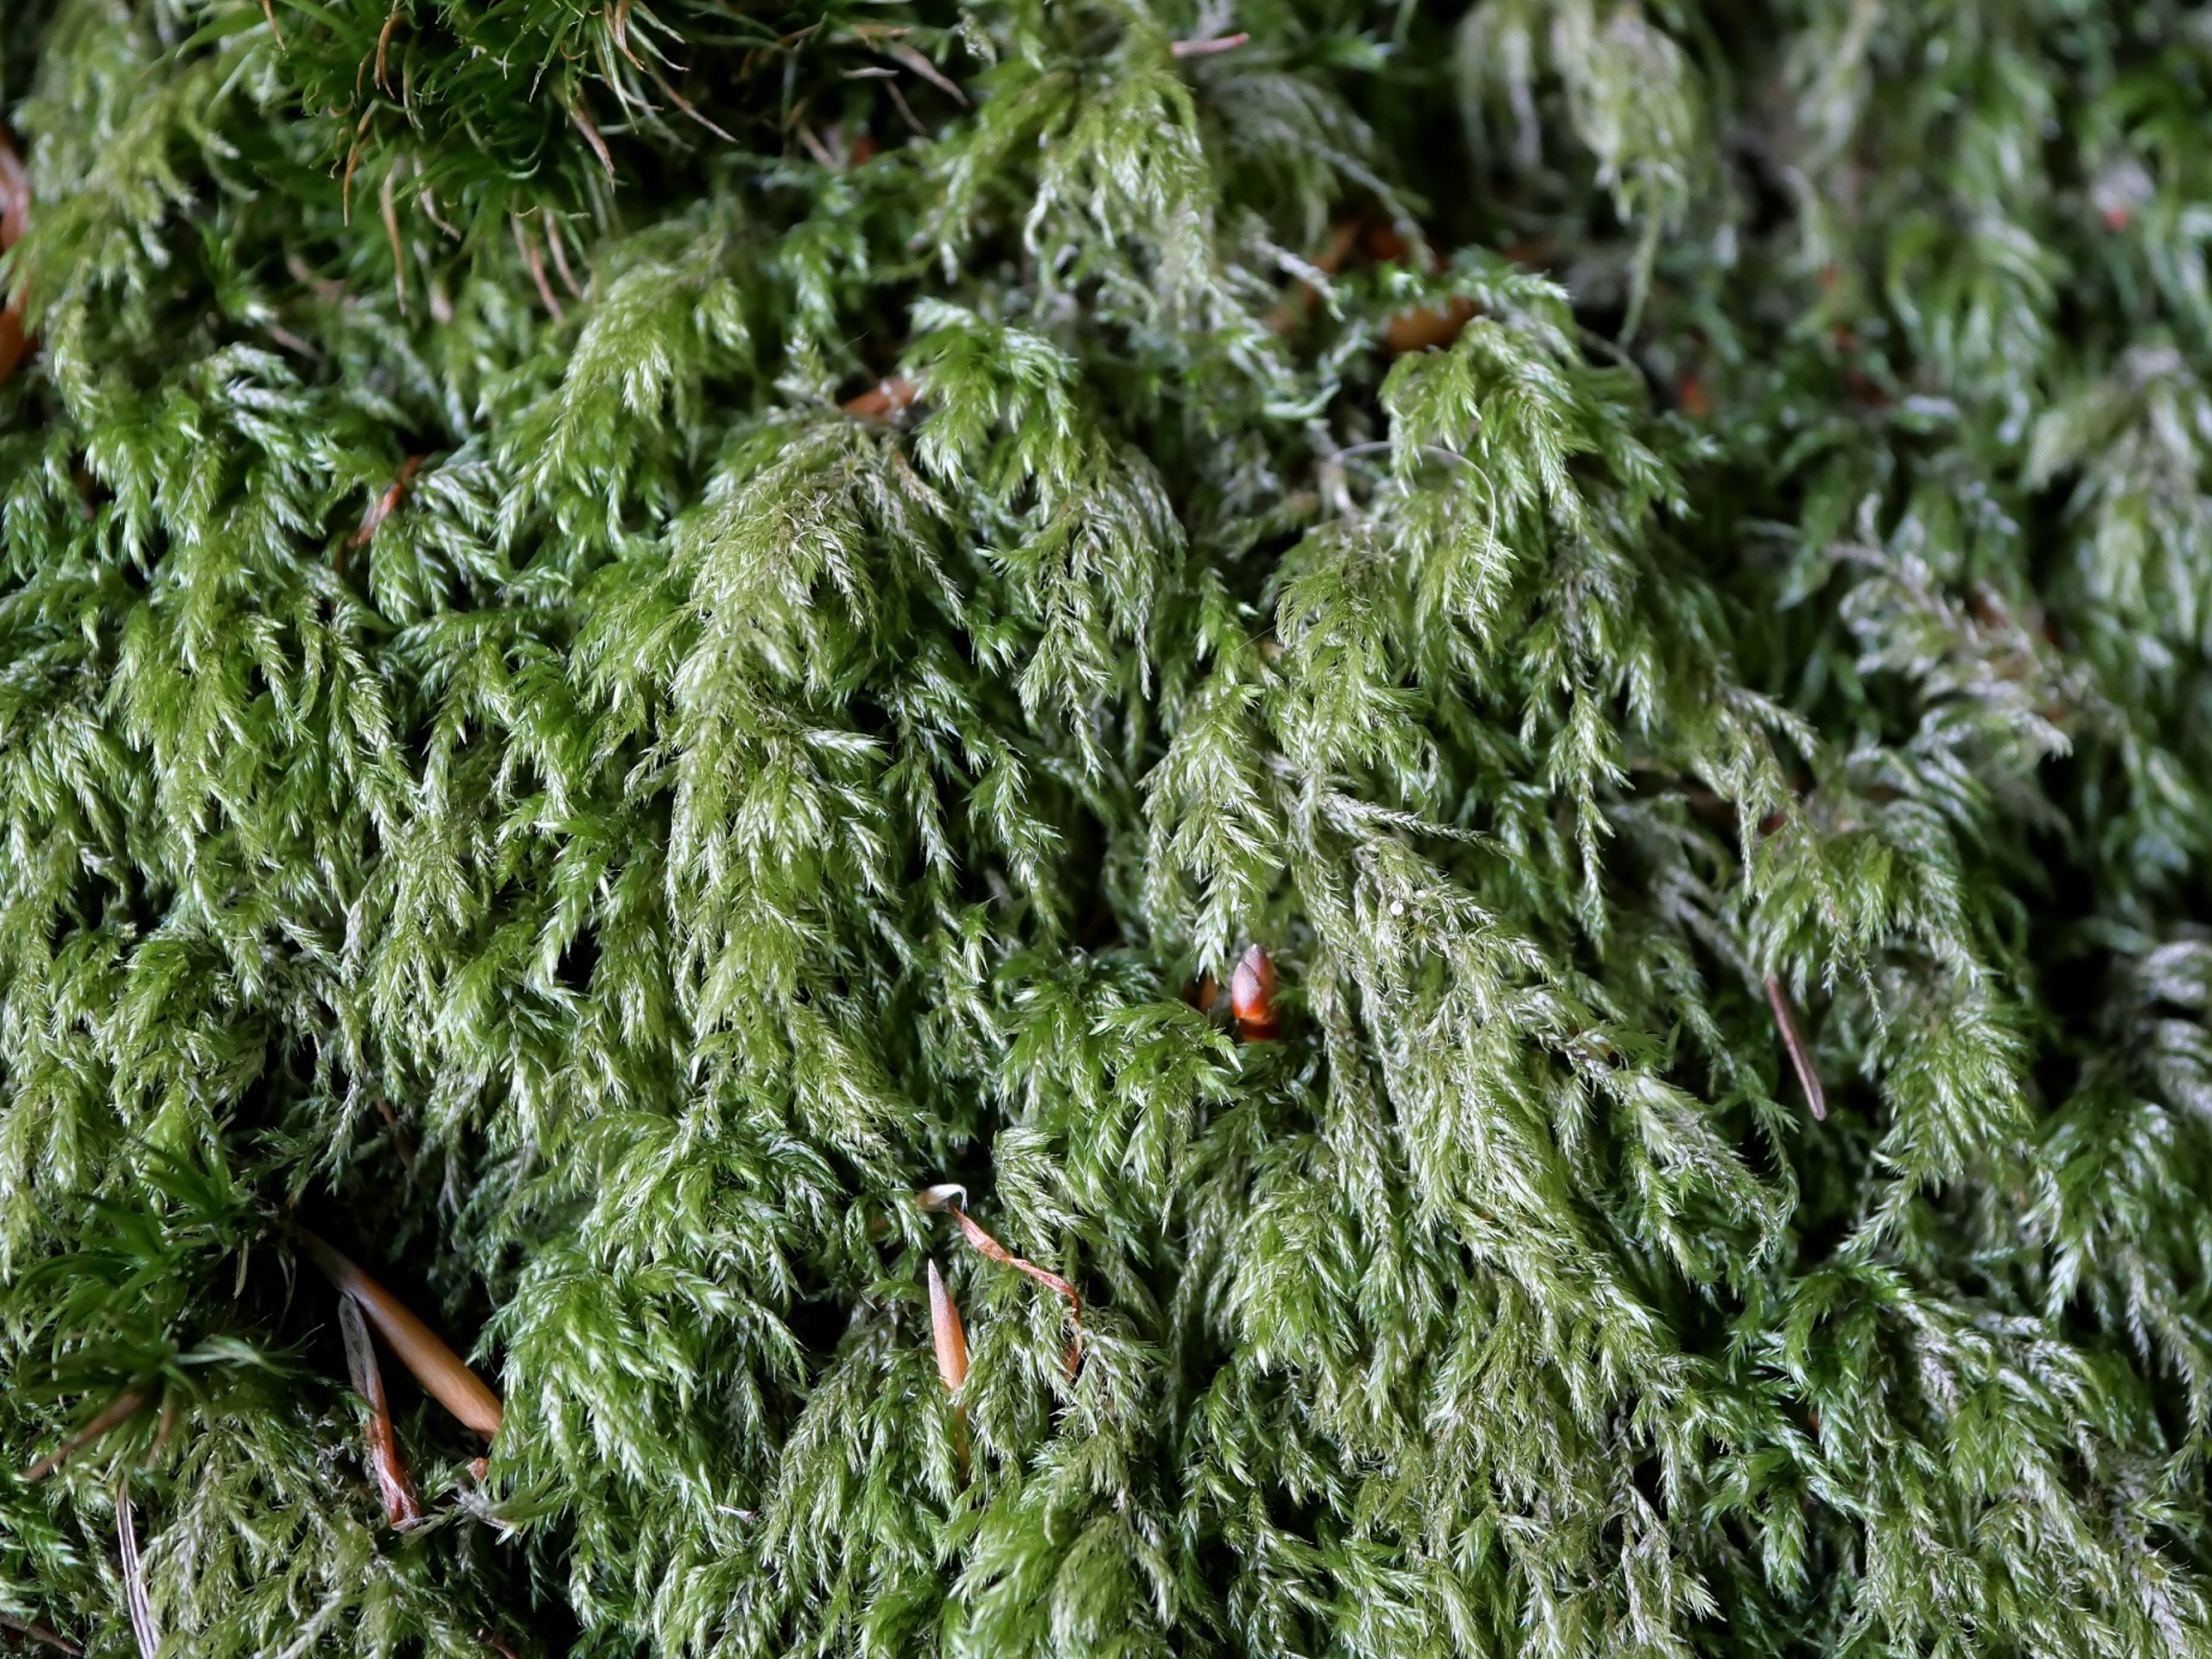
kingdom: Plantae
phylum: Bryophyta
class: Bryopsida
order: Hypnales
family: Lembophyllaceae
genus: Pseudisothecium
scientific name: Pseudisothecium myosuroides
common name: Slank stammemos
